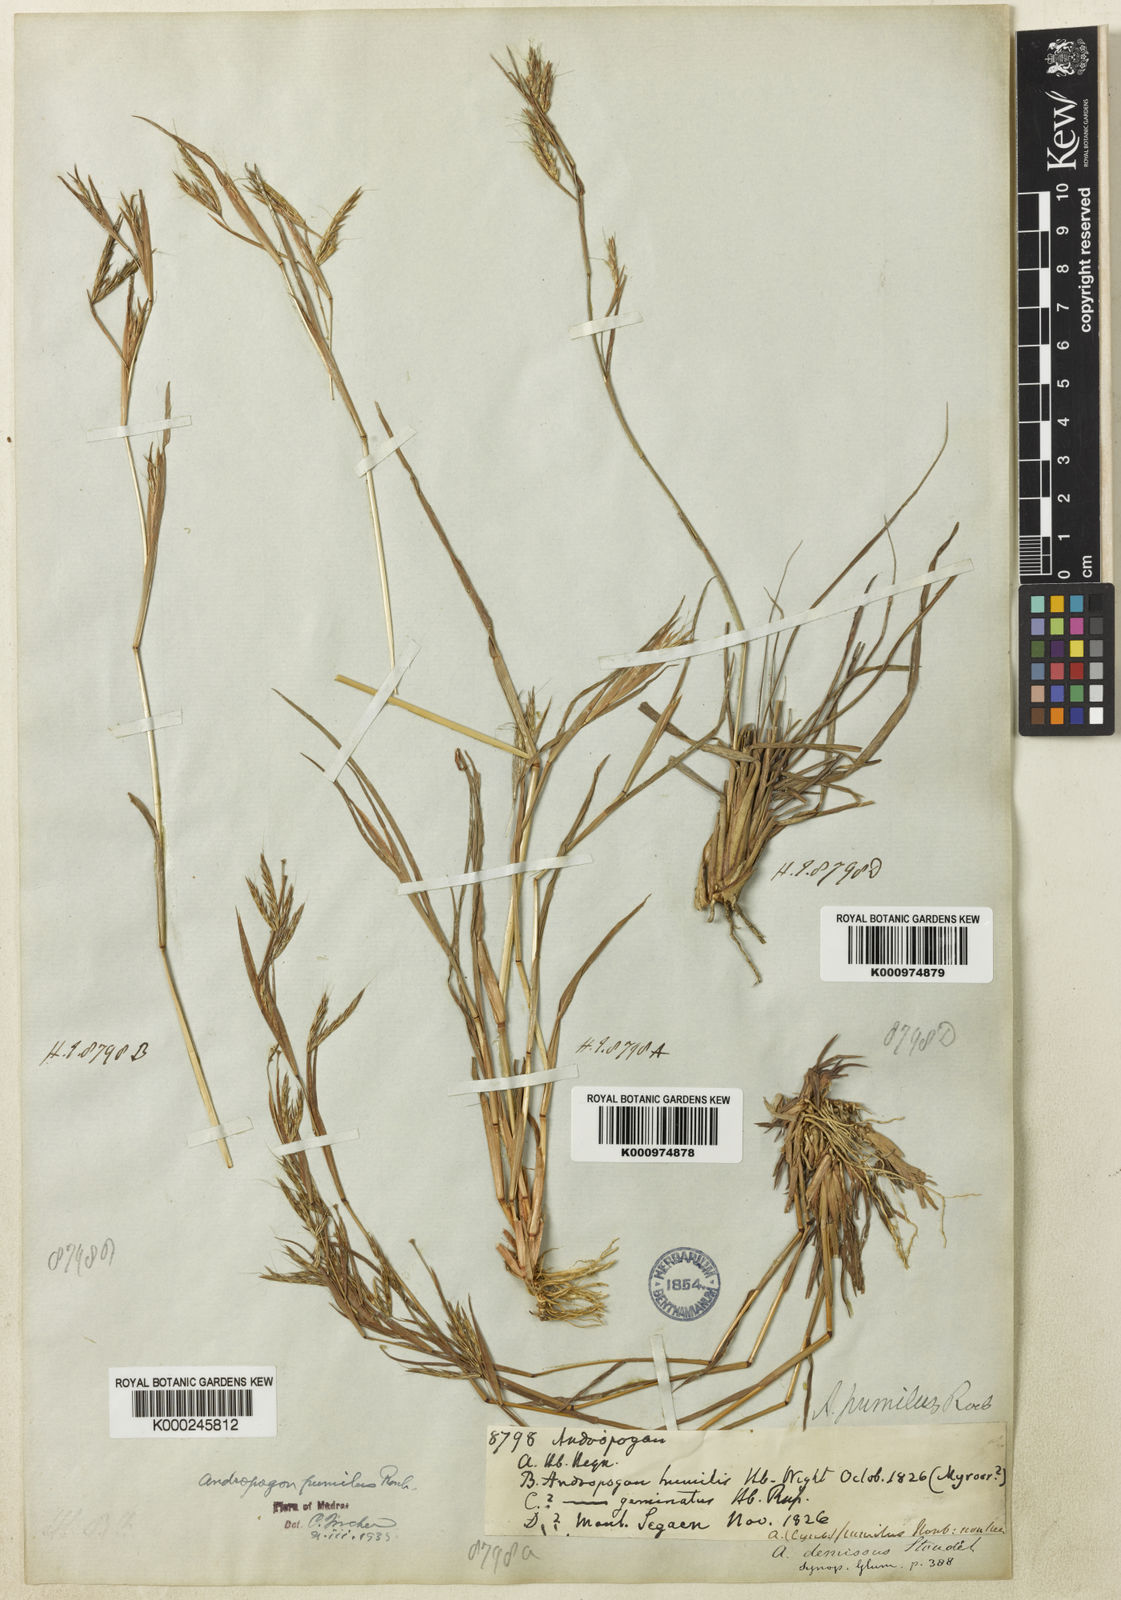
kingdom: Plantae
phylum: Tracheophyta
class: Liliopsida
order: Poales
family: Poaceae
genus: Andropogon
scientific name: Andropogon pumilus
